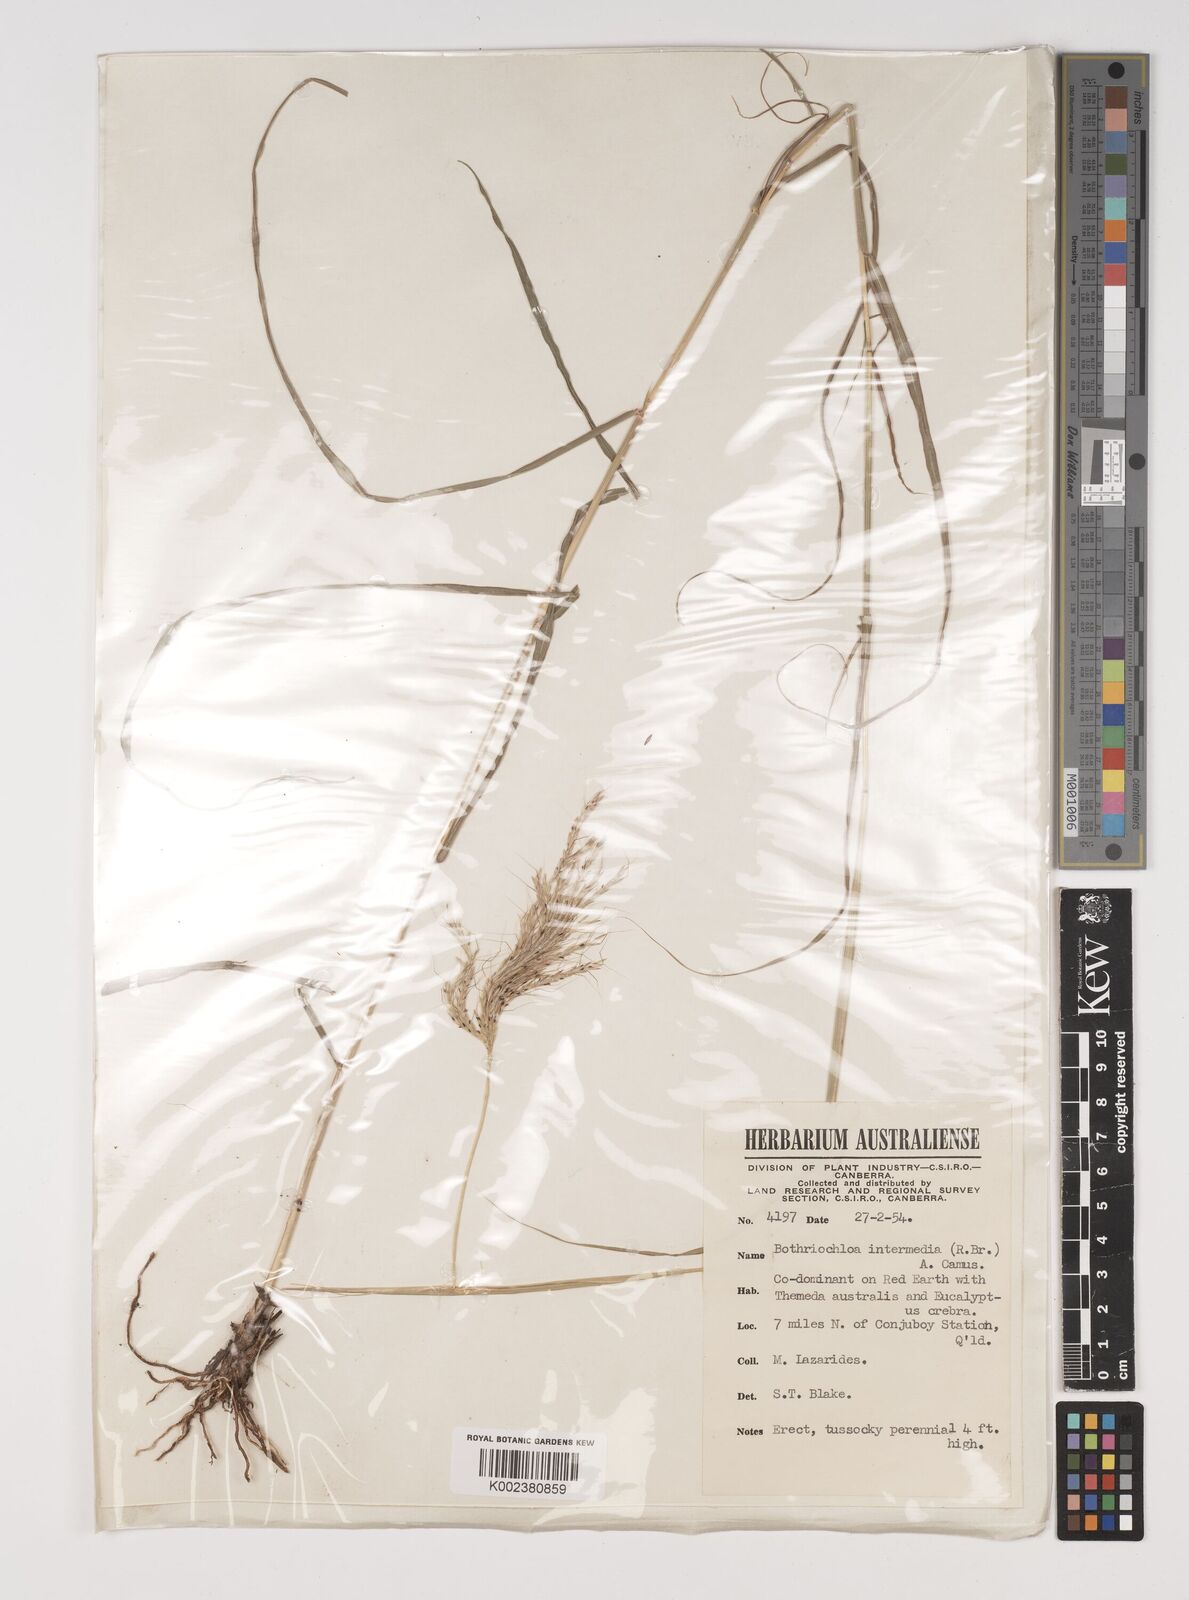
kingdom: Plantae
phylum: Tracheophyta
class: Liliopsida
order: Poales
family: Poaceae
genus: Bothriochloa
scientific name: Bothriochloa bladhii
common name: Caucasian bluestem
